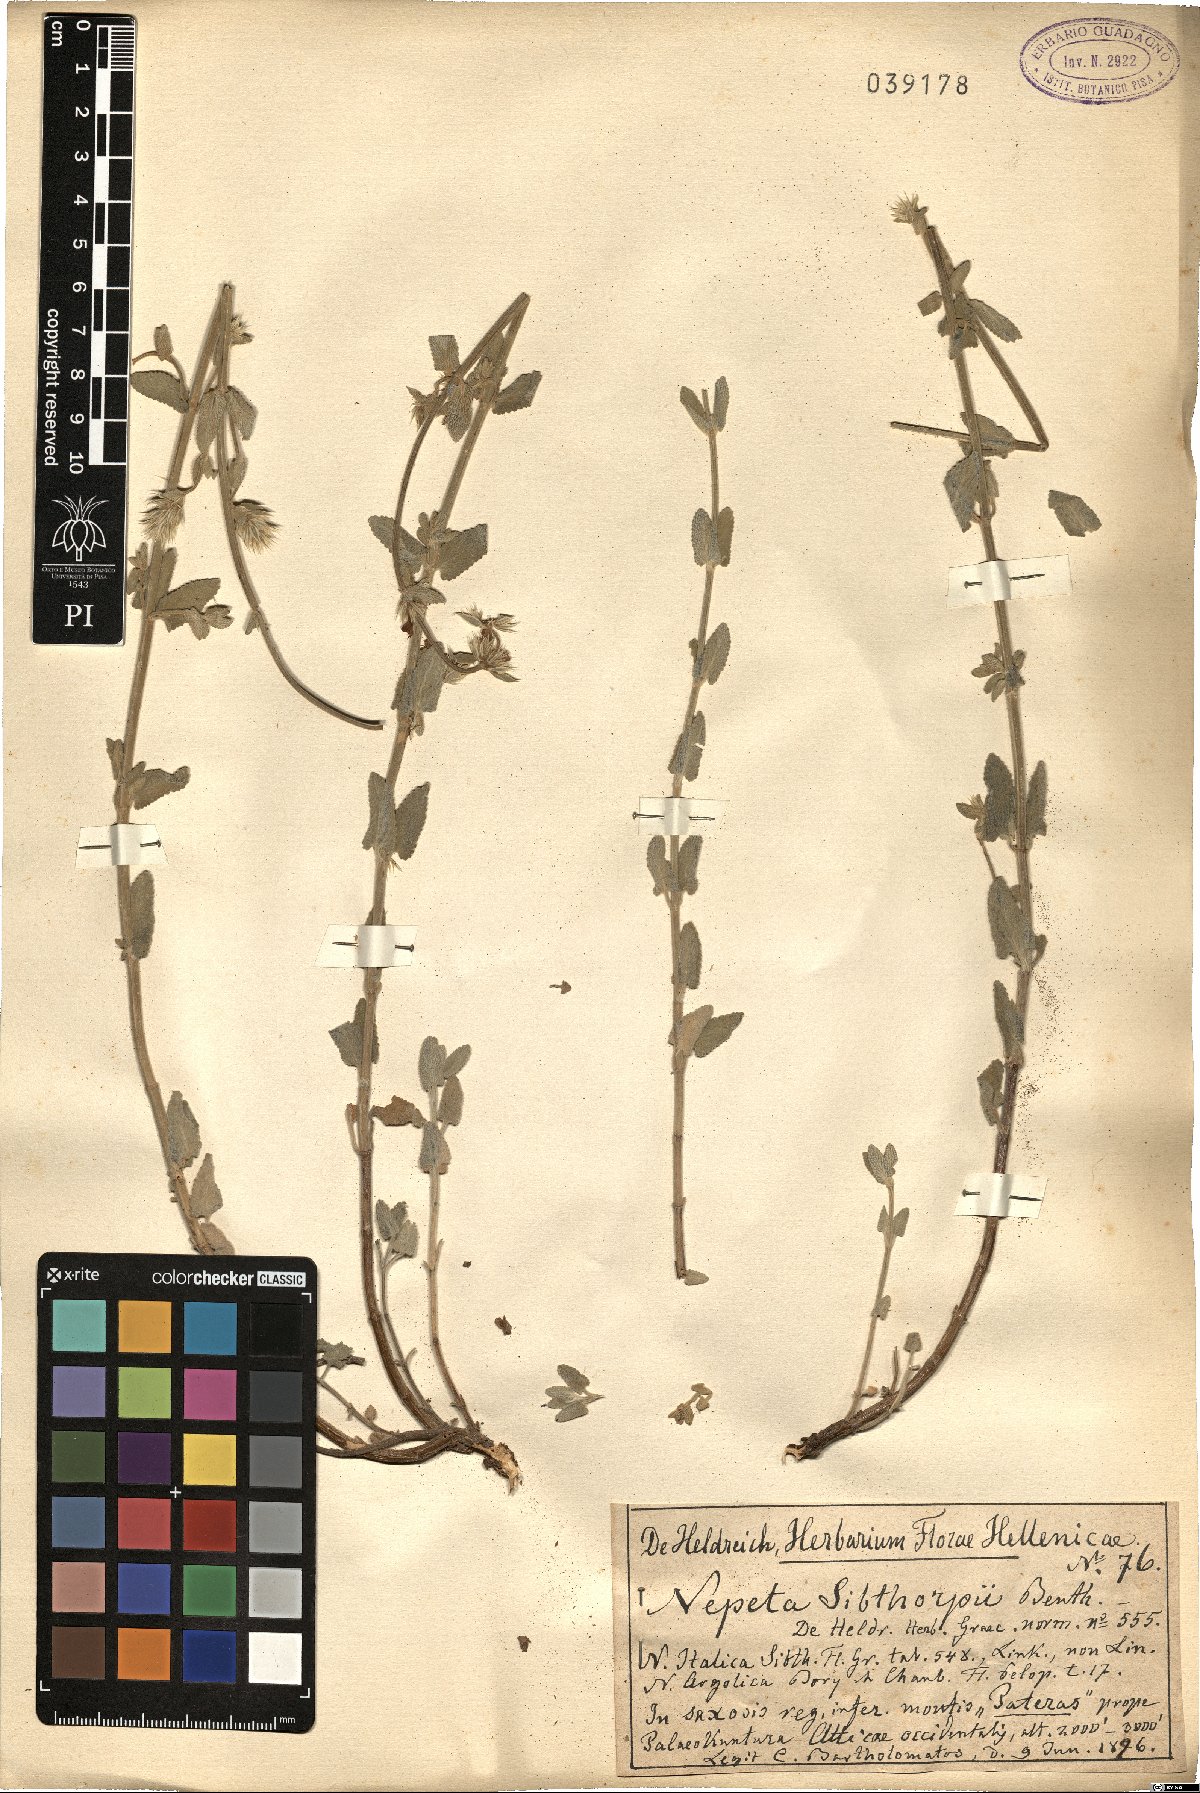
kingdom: Plantae
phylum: Tracheophyta
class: Magnoliopsida
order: Lamiales
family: Lamiaceae
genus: Nepeta
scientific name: Nepeta argolica
